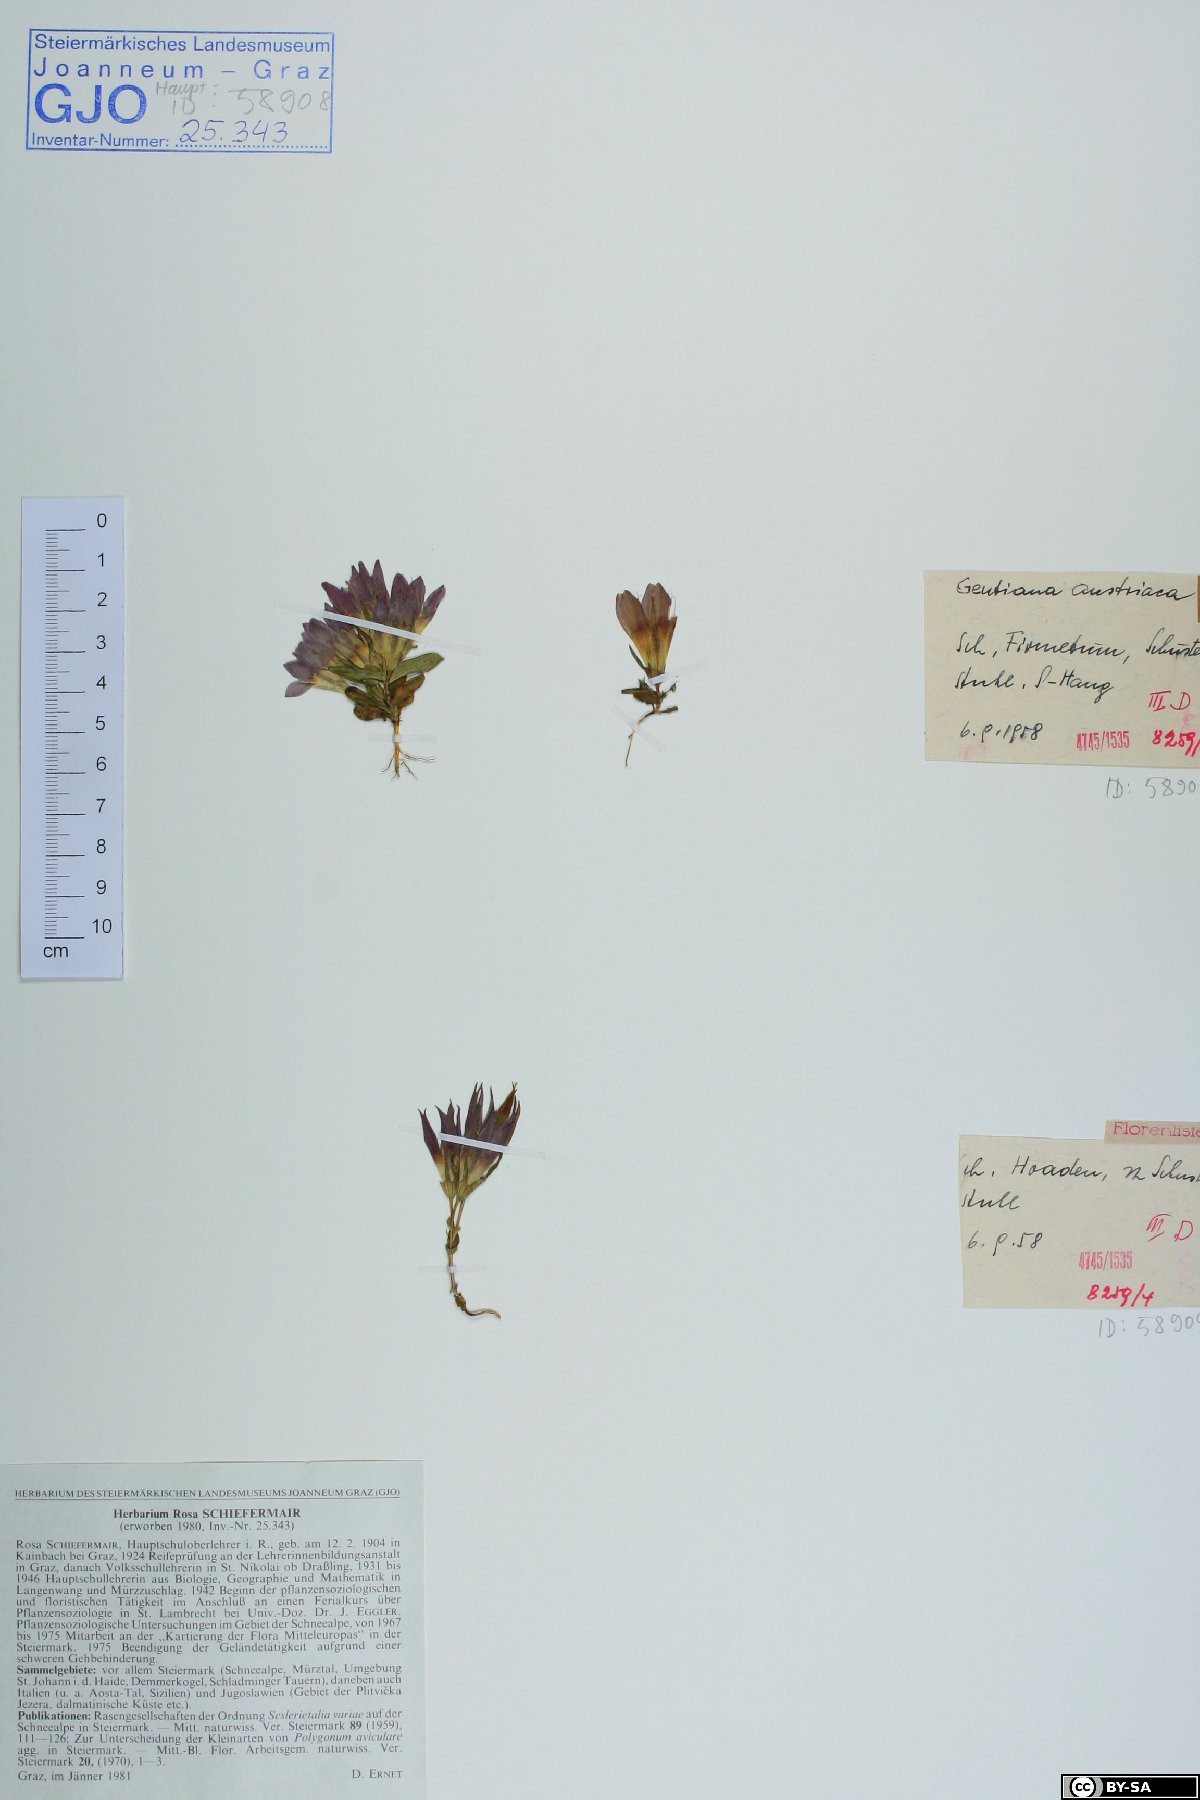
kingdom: Plantae
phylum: Tracheophyta
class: Magnoliopsida
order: Gentianales
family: Gentianaceae
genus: Gentianella
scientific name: Gentianella austriaca
